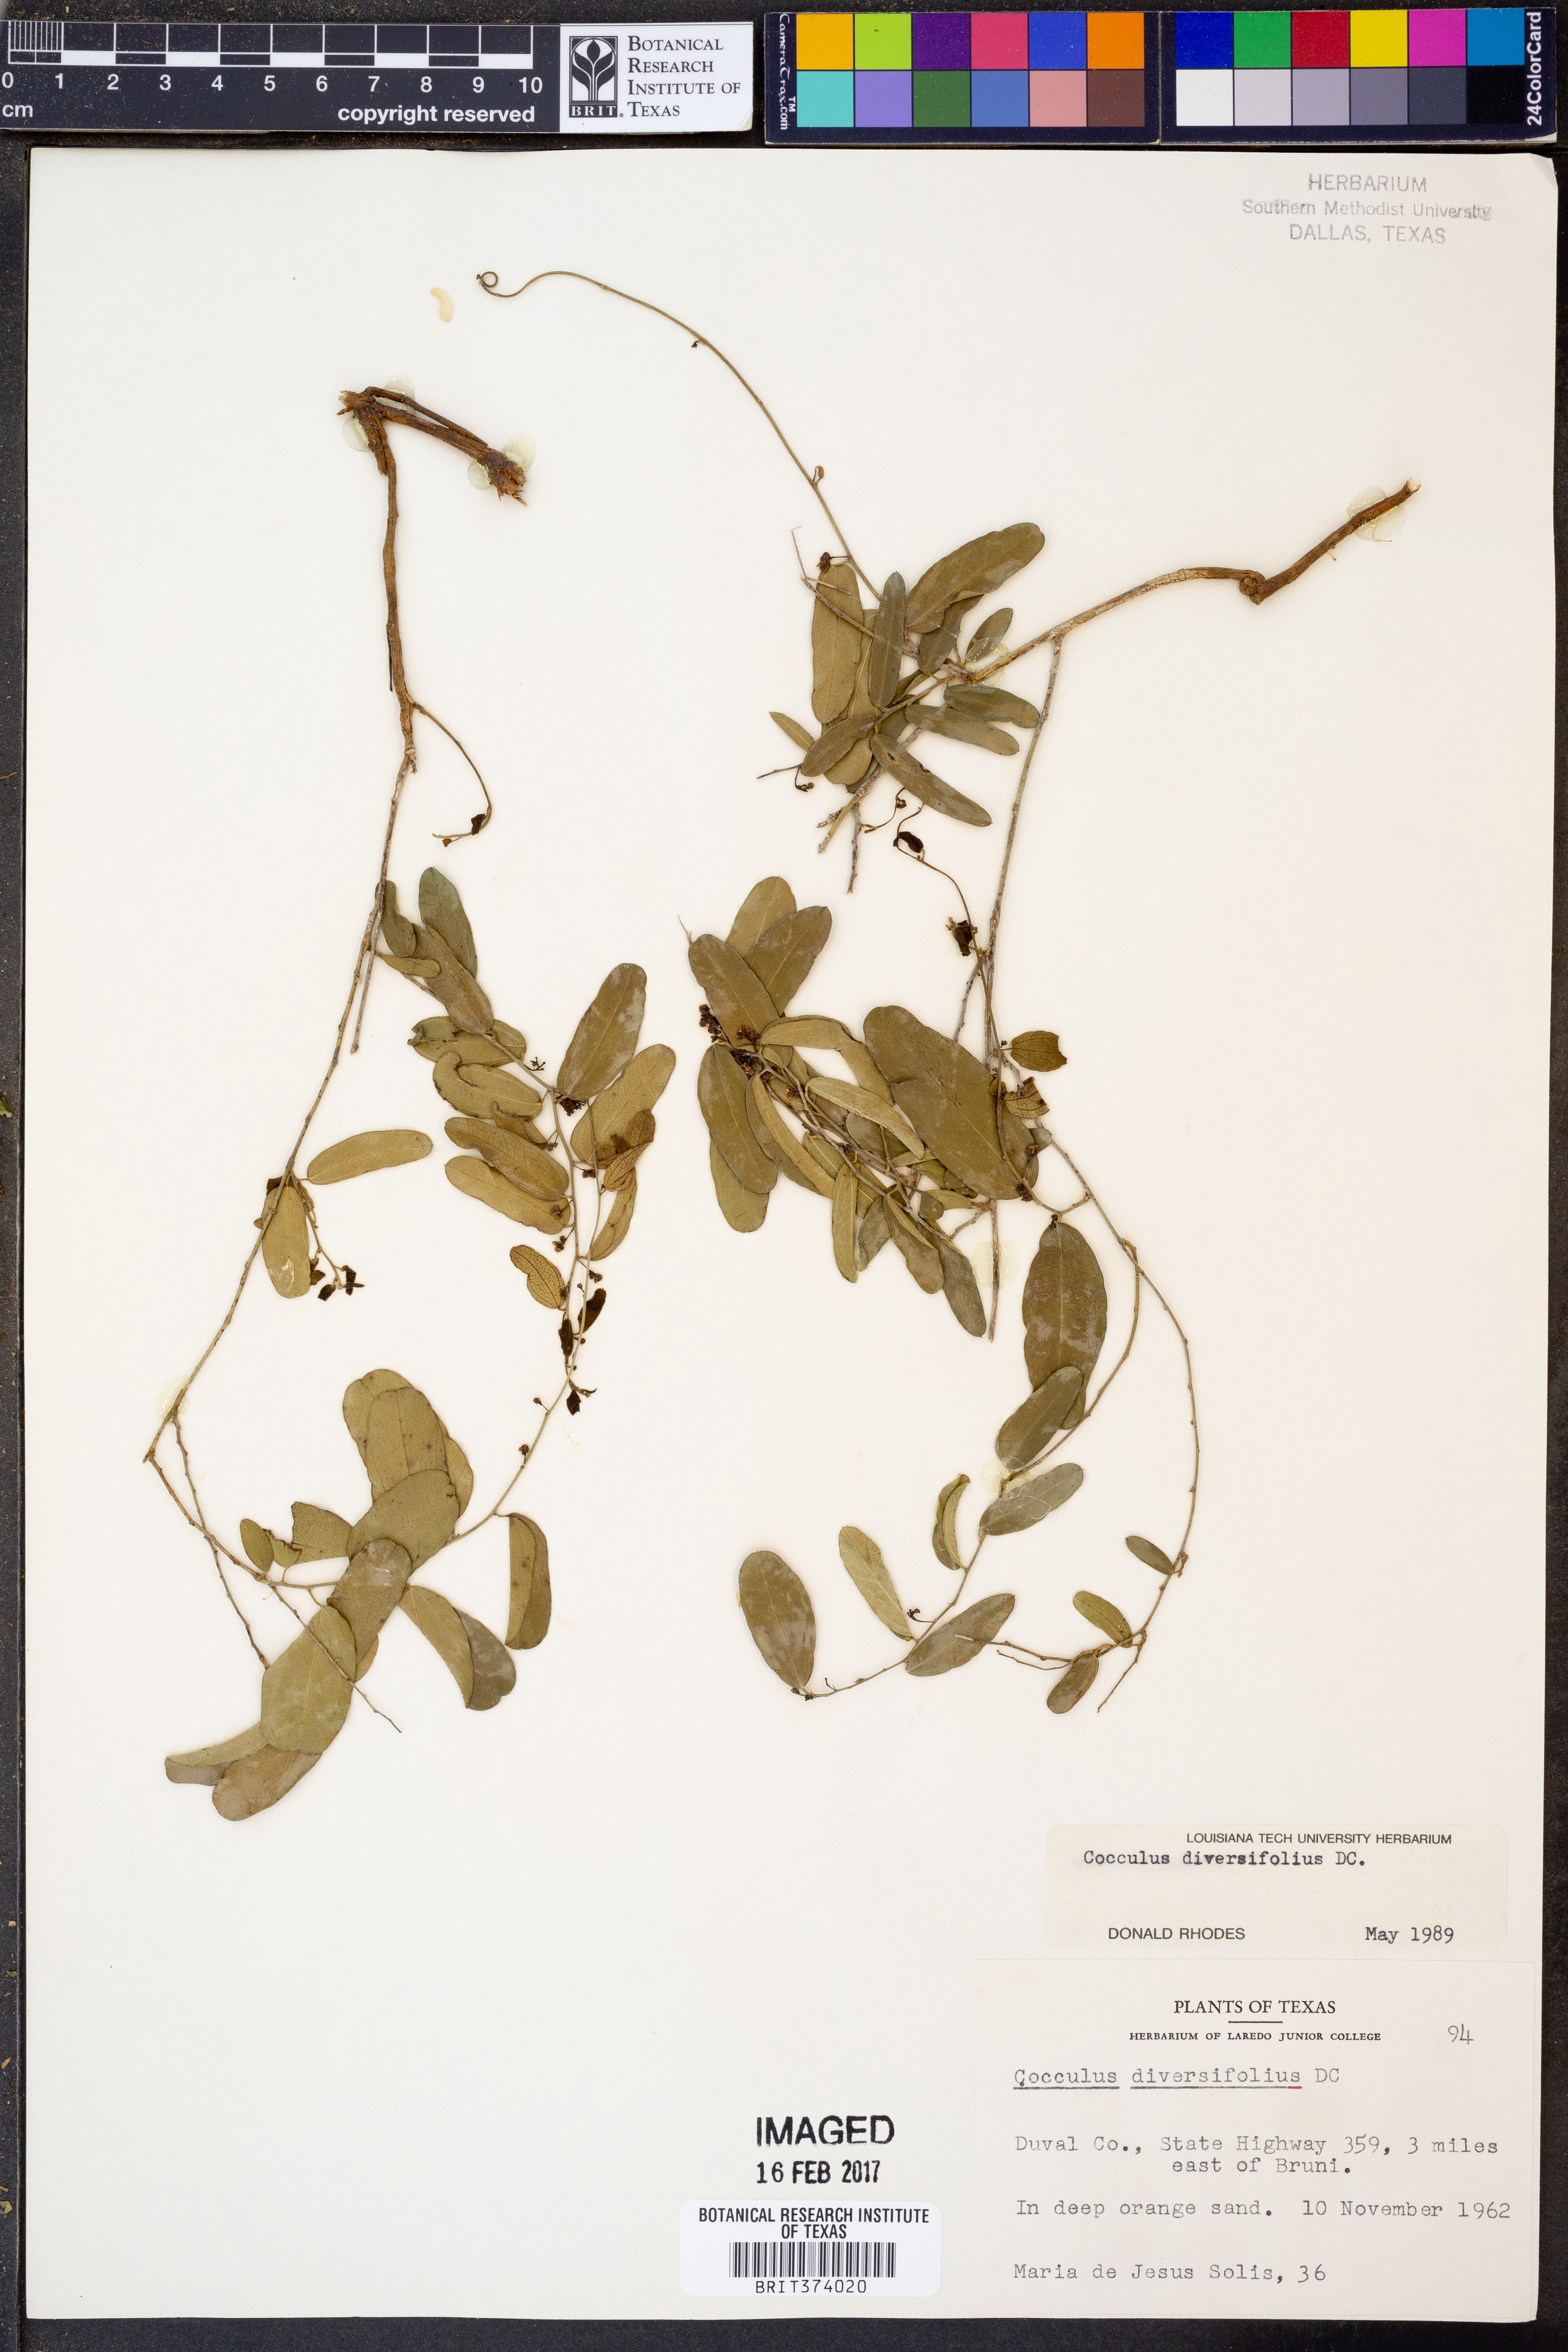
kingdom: Plantae
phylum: Tracheophyta
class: Magnoliopsida
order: Ranunculales
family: Menispermaceae
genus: Cocculus
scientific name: Cocculus diversifolius
